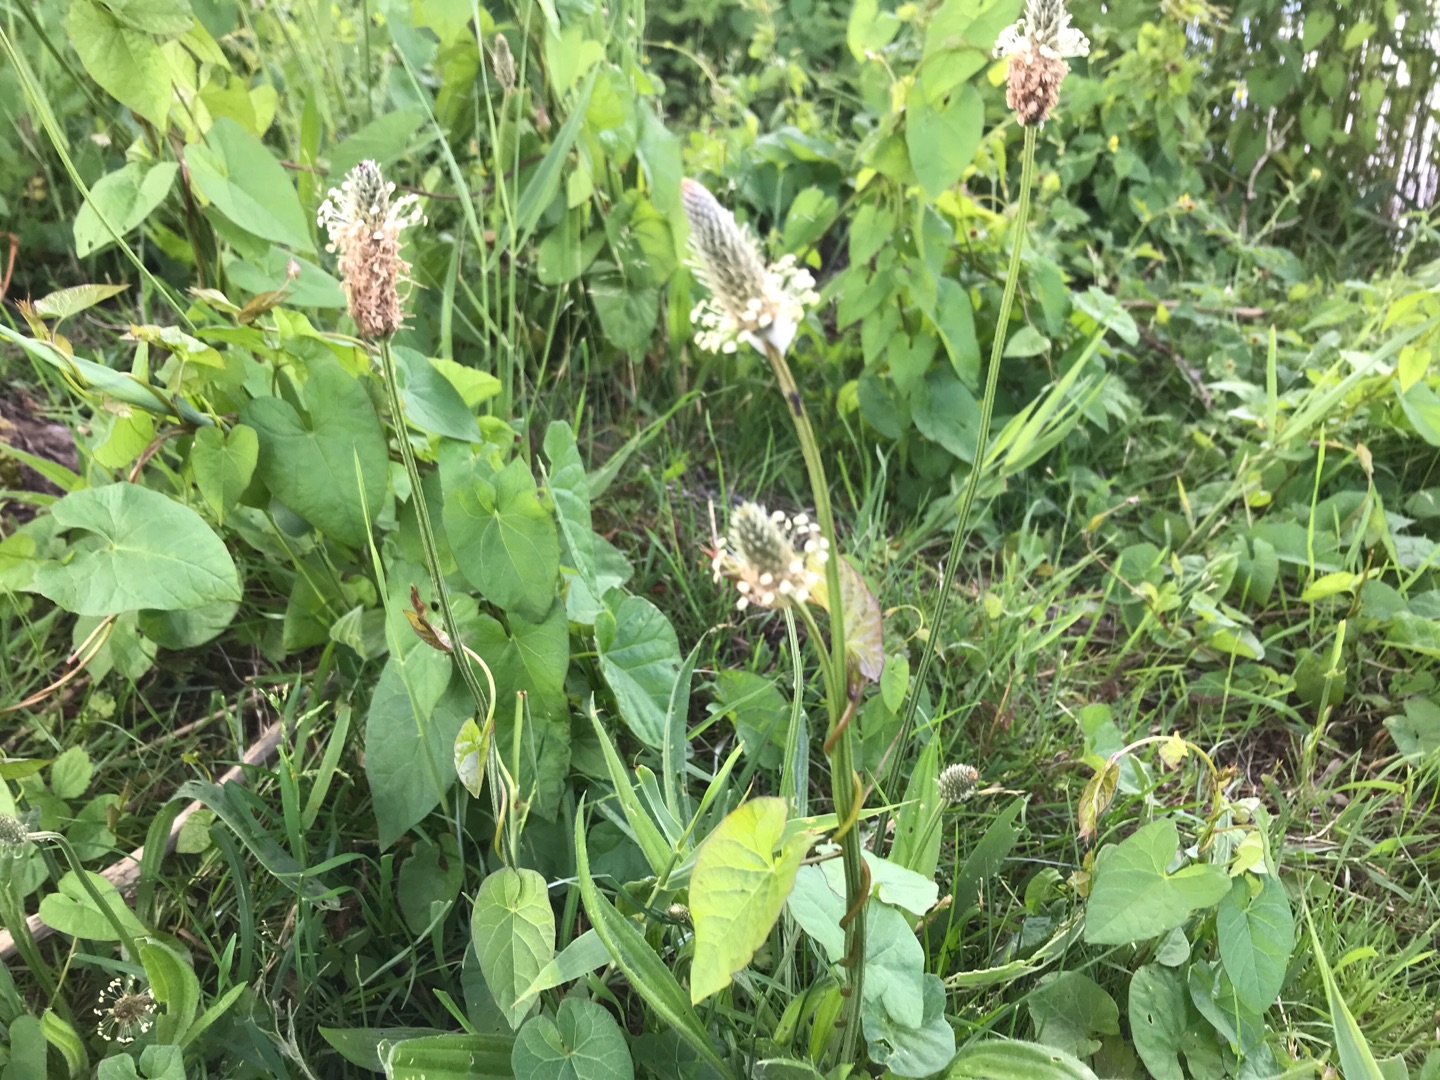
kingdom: Plantae
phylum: Tracheophyta
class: Magnoliopsida
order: Lamiales
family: Plantaginaceae
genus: Plantago
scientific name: Plantago lanceolata
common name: Lancet-vejbred
